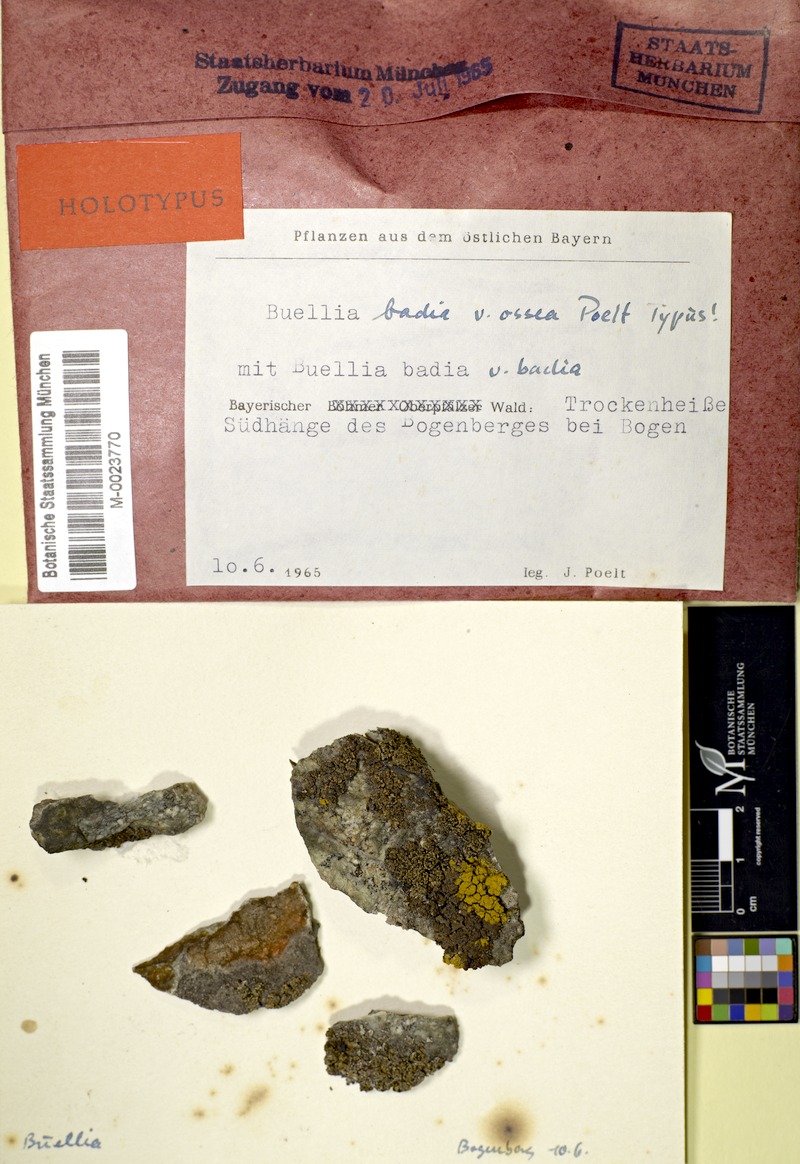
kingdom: Fungi
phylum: Ascomycota
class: Lecanoromycetes
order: Caliciales
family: Caliciaceae
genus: Buellia
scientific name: Buellia badia
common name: Parasitic button lichen
